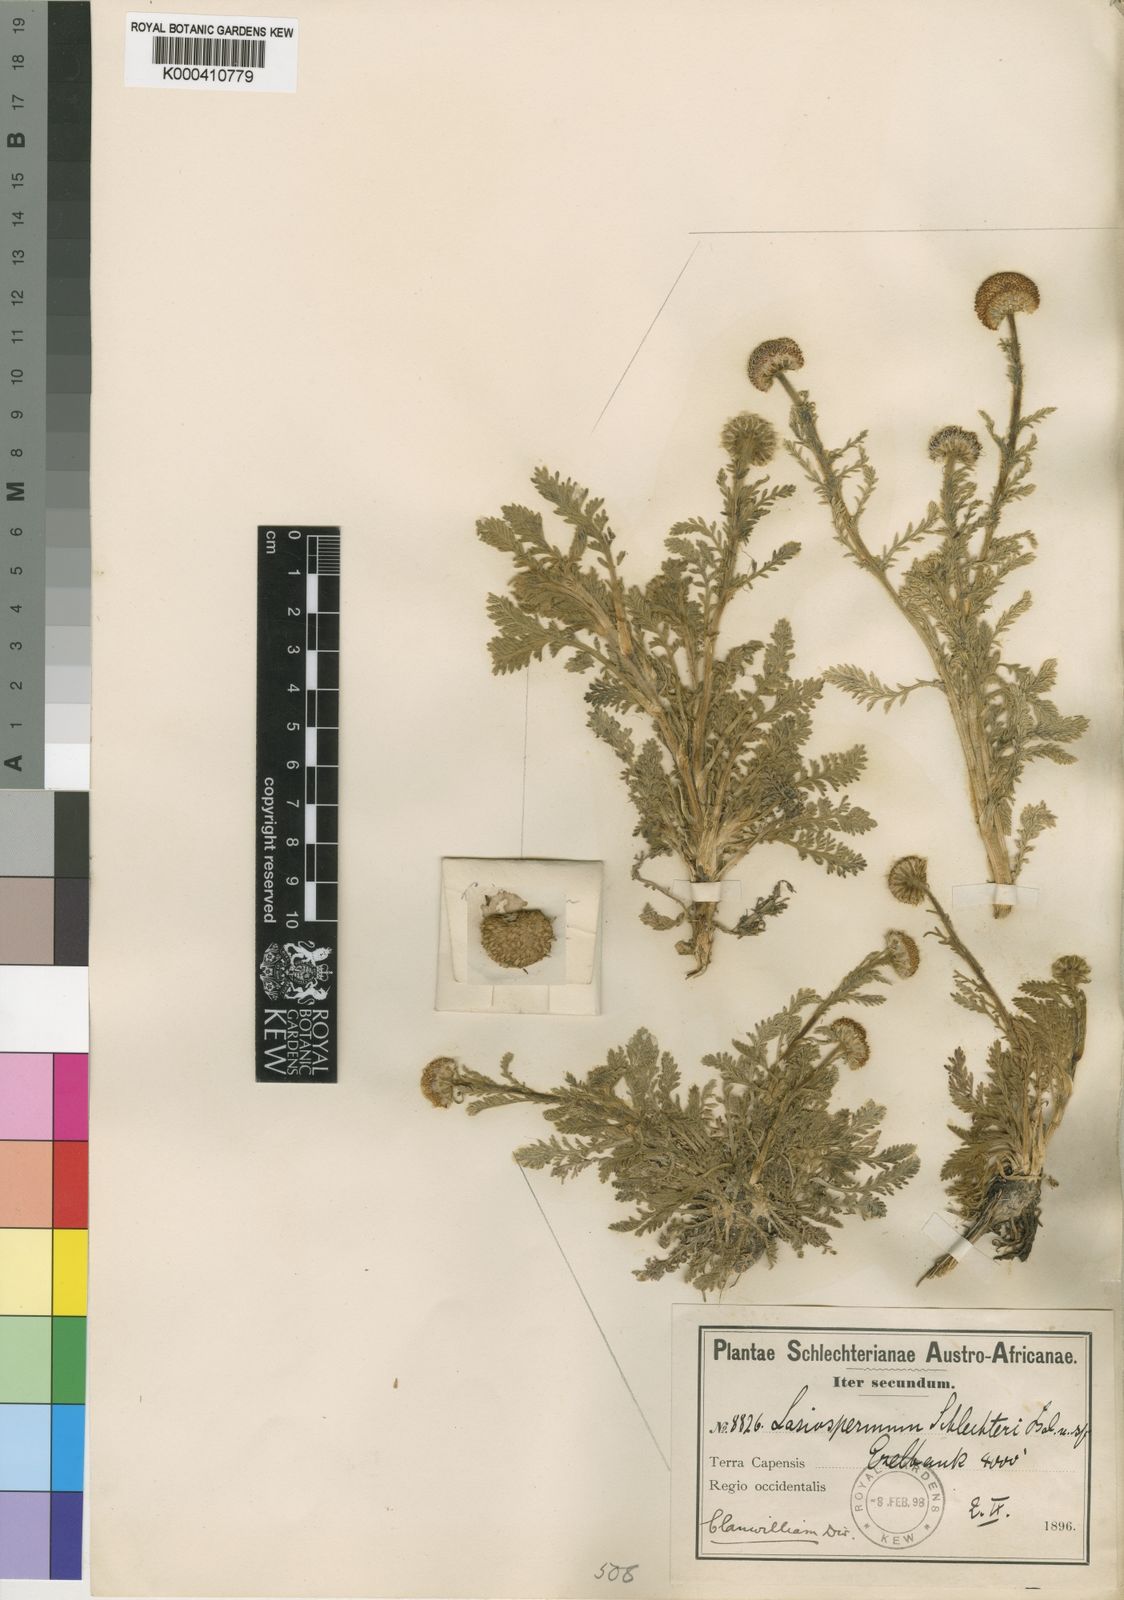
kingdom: Plantae
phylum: Tracheophyta
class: Magnoliopsida
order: Asterales
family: Asteraceae
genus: Lasiospermum
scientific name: Lasiospermum
